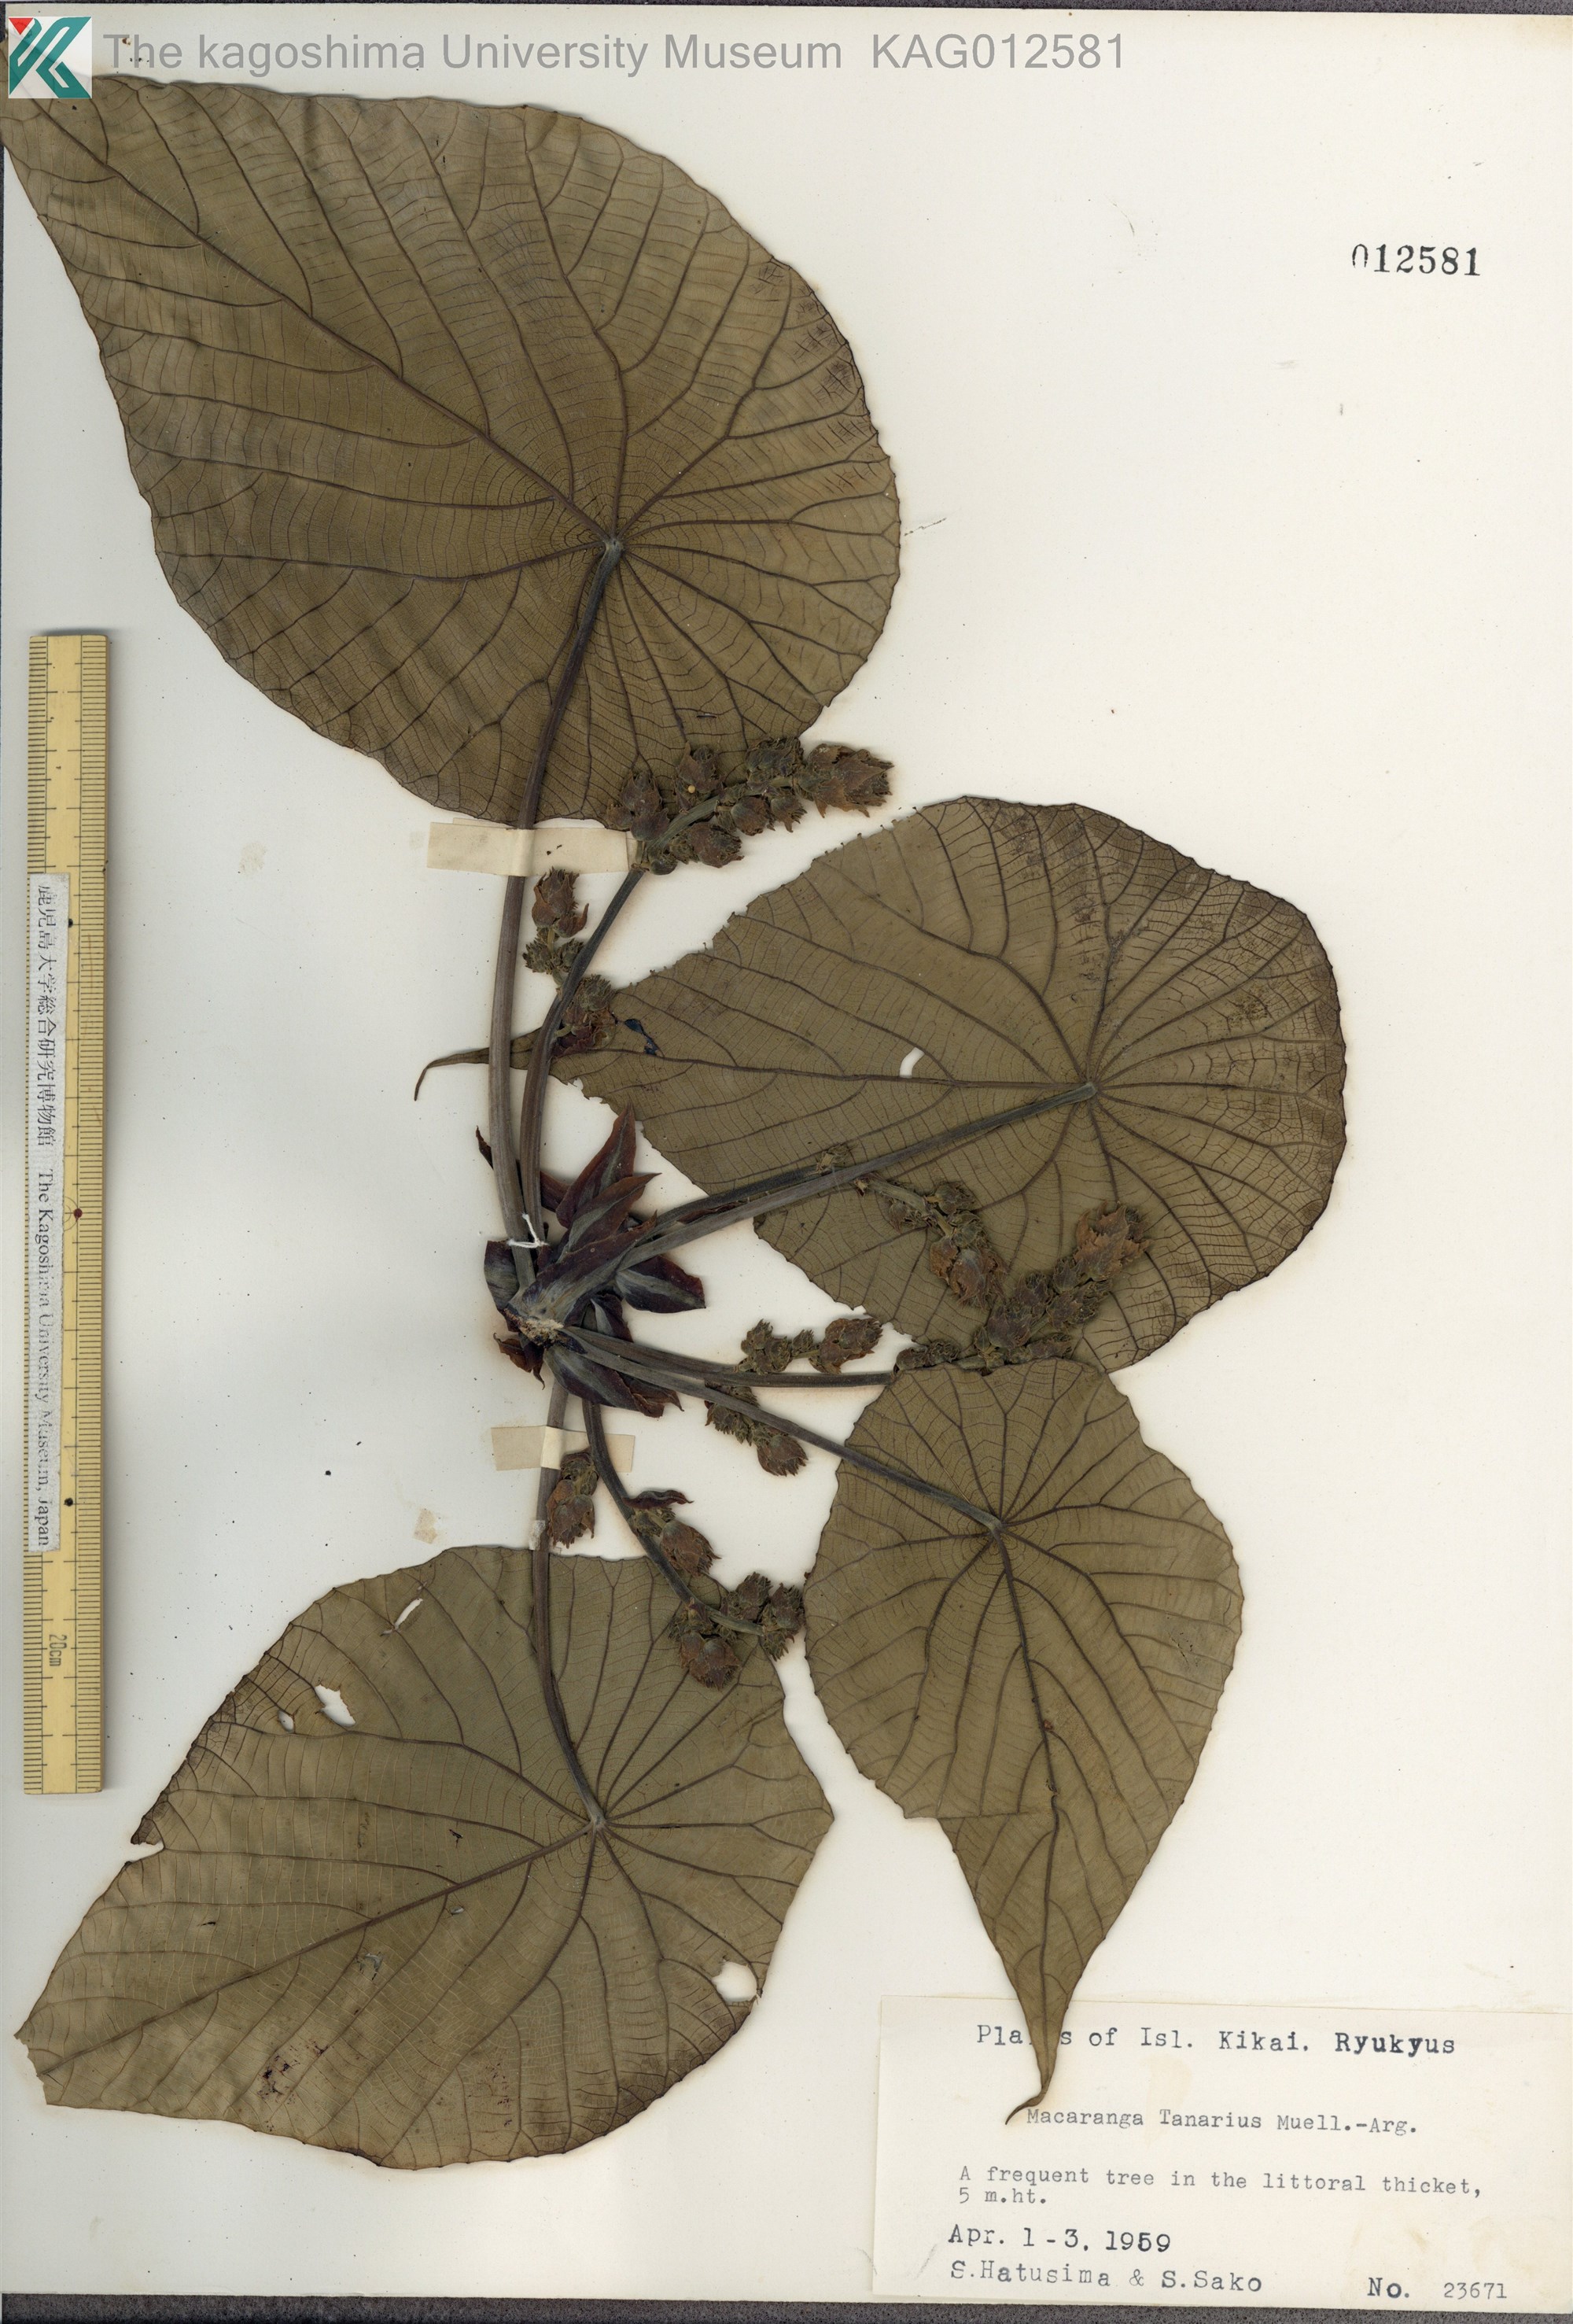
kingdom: Plantae
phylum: Tracheophyta
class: Magnoliopsida
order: Malpighiales
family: Euphorbiaceae
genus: Macaranga
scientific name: Macaranga tanarius
